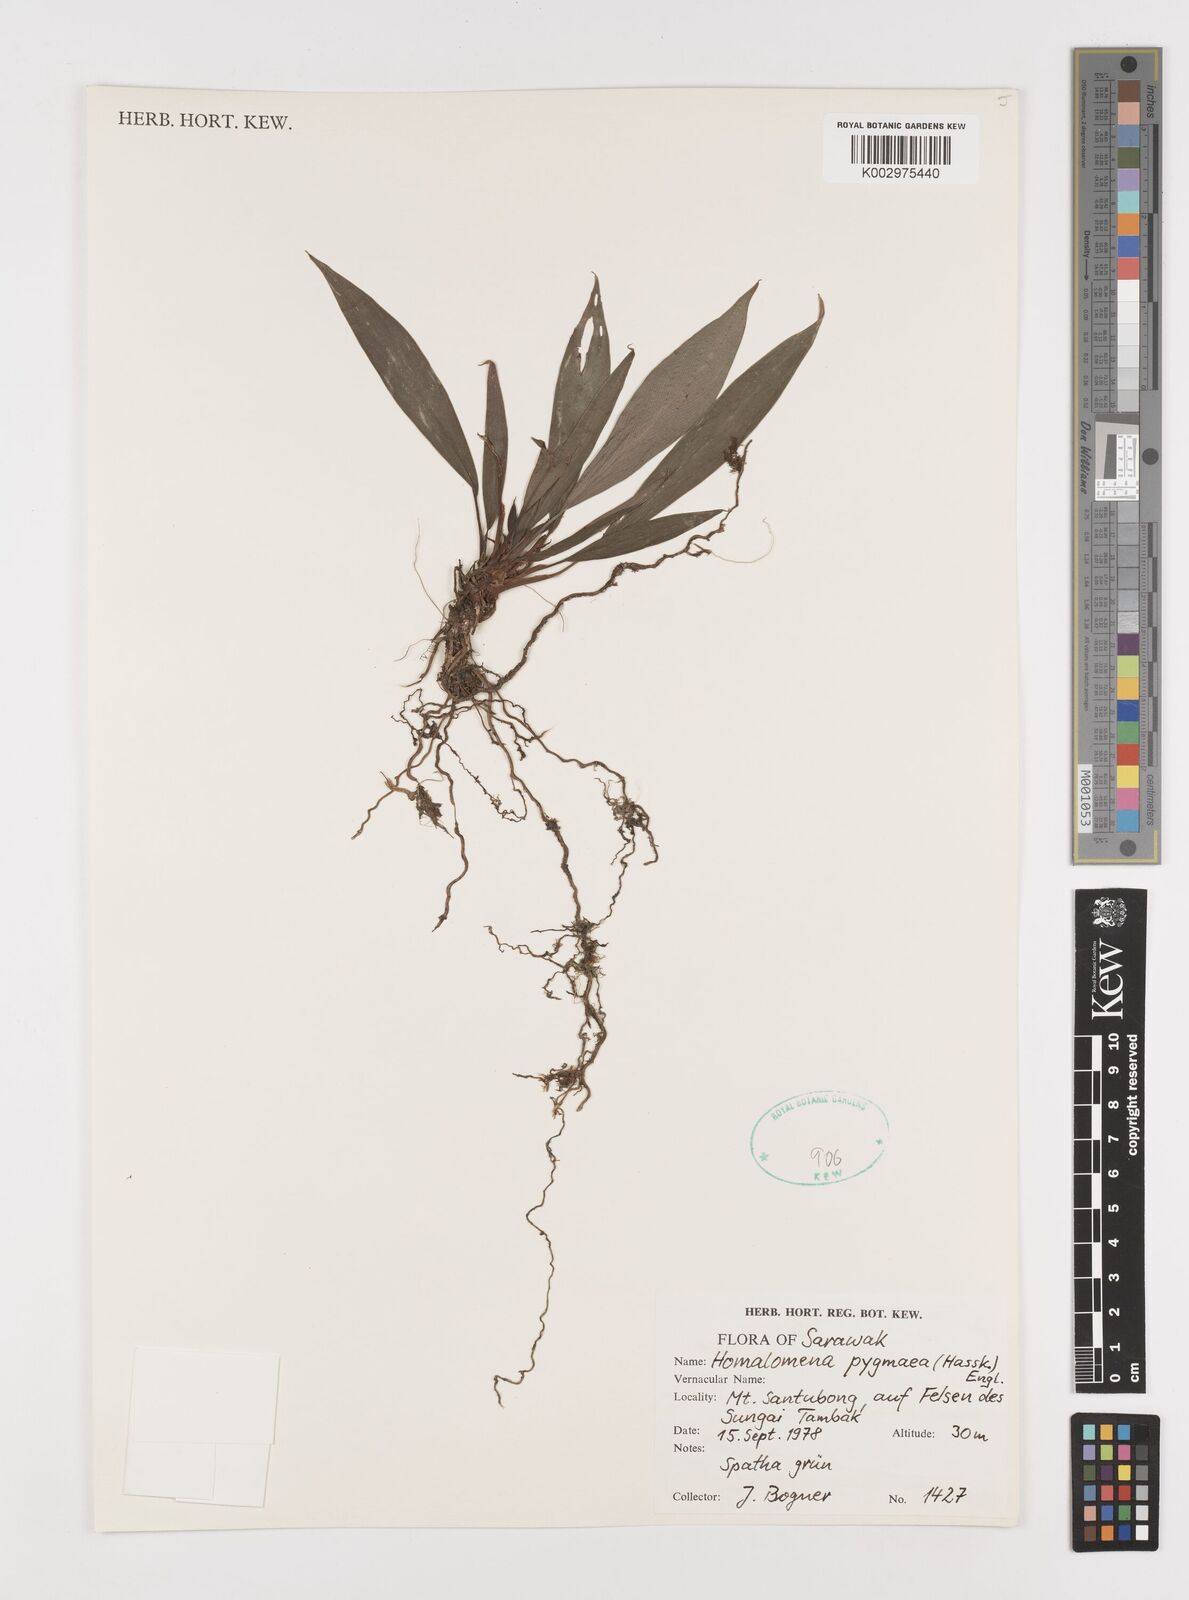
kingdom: Plantae
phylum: Tracheophyta
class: Liliopsida
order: Alismatales
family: Araceae
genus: Homalomena
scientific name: Homalomena humilis
